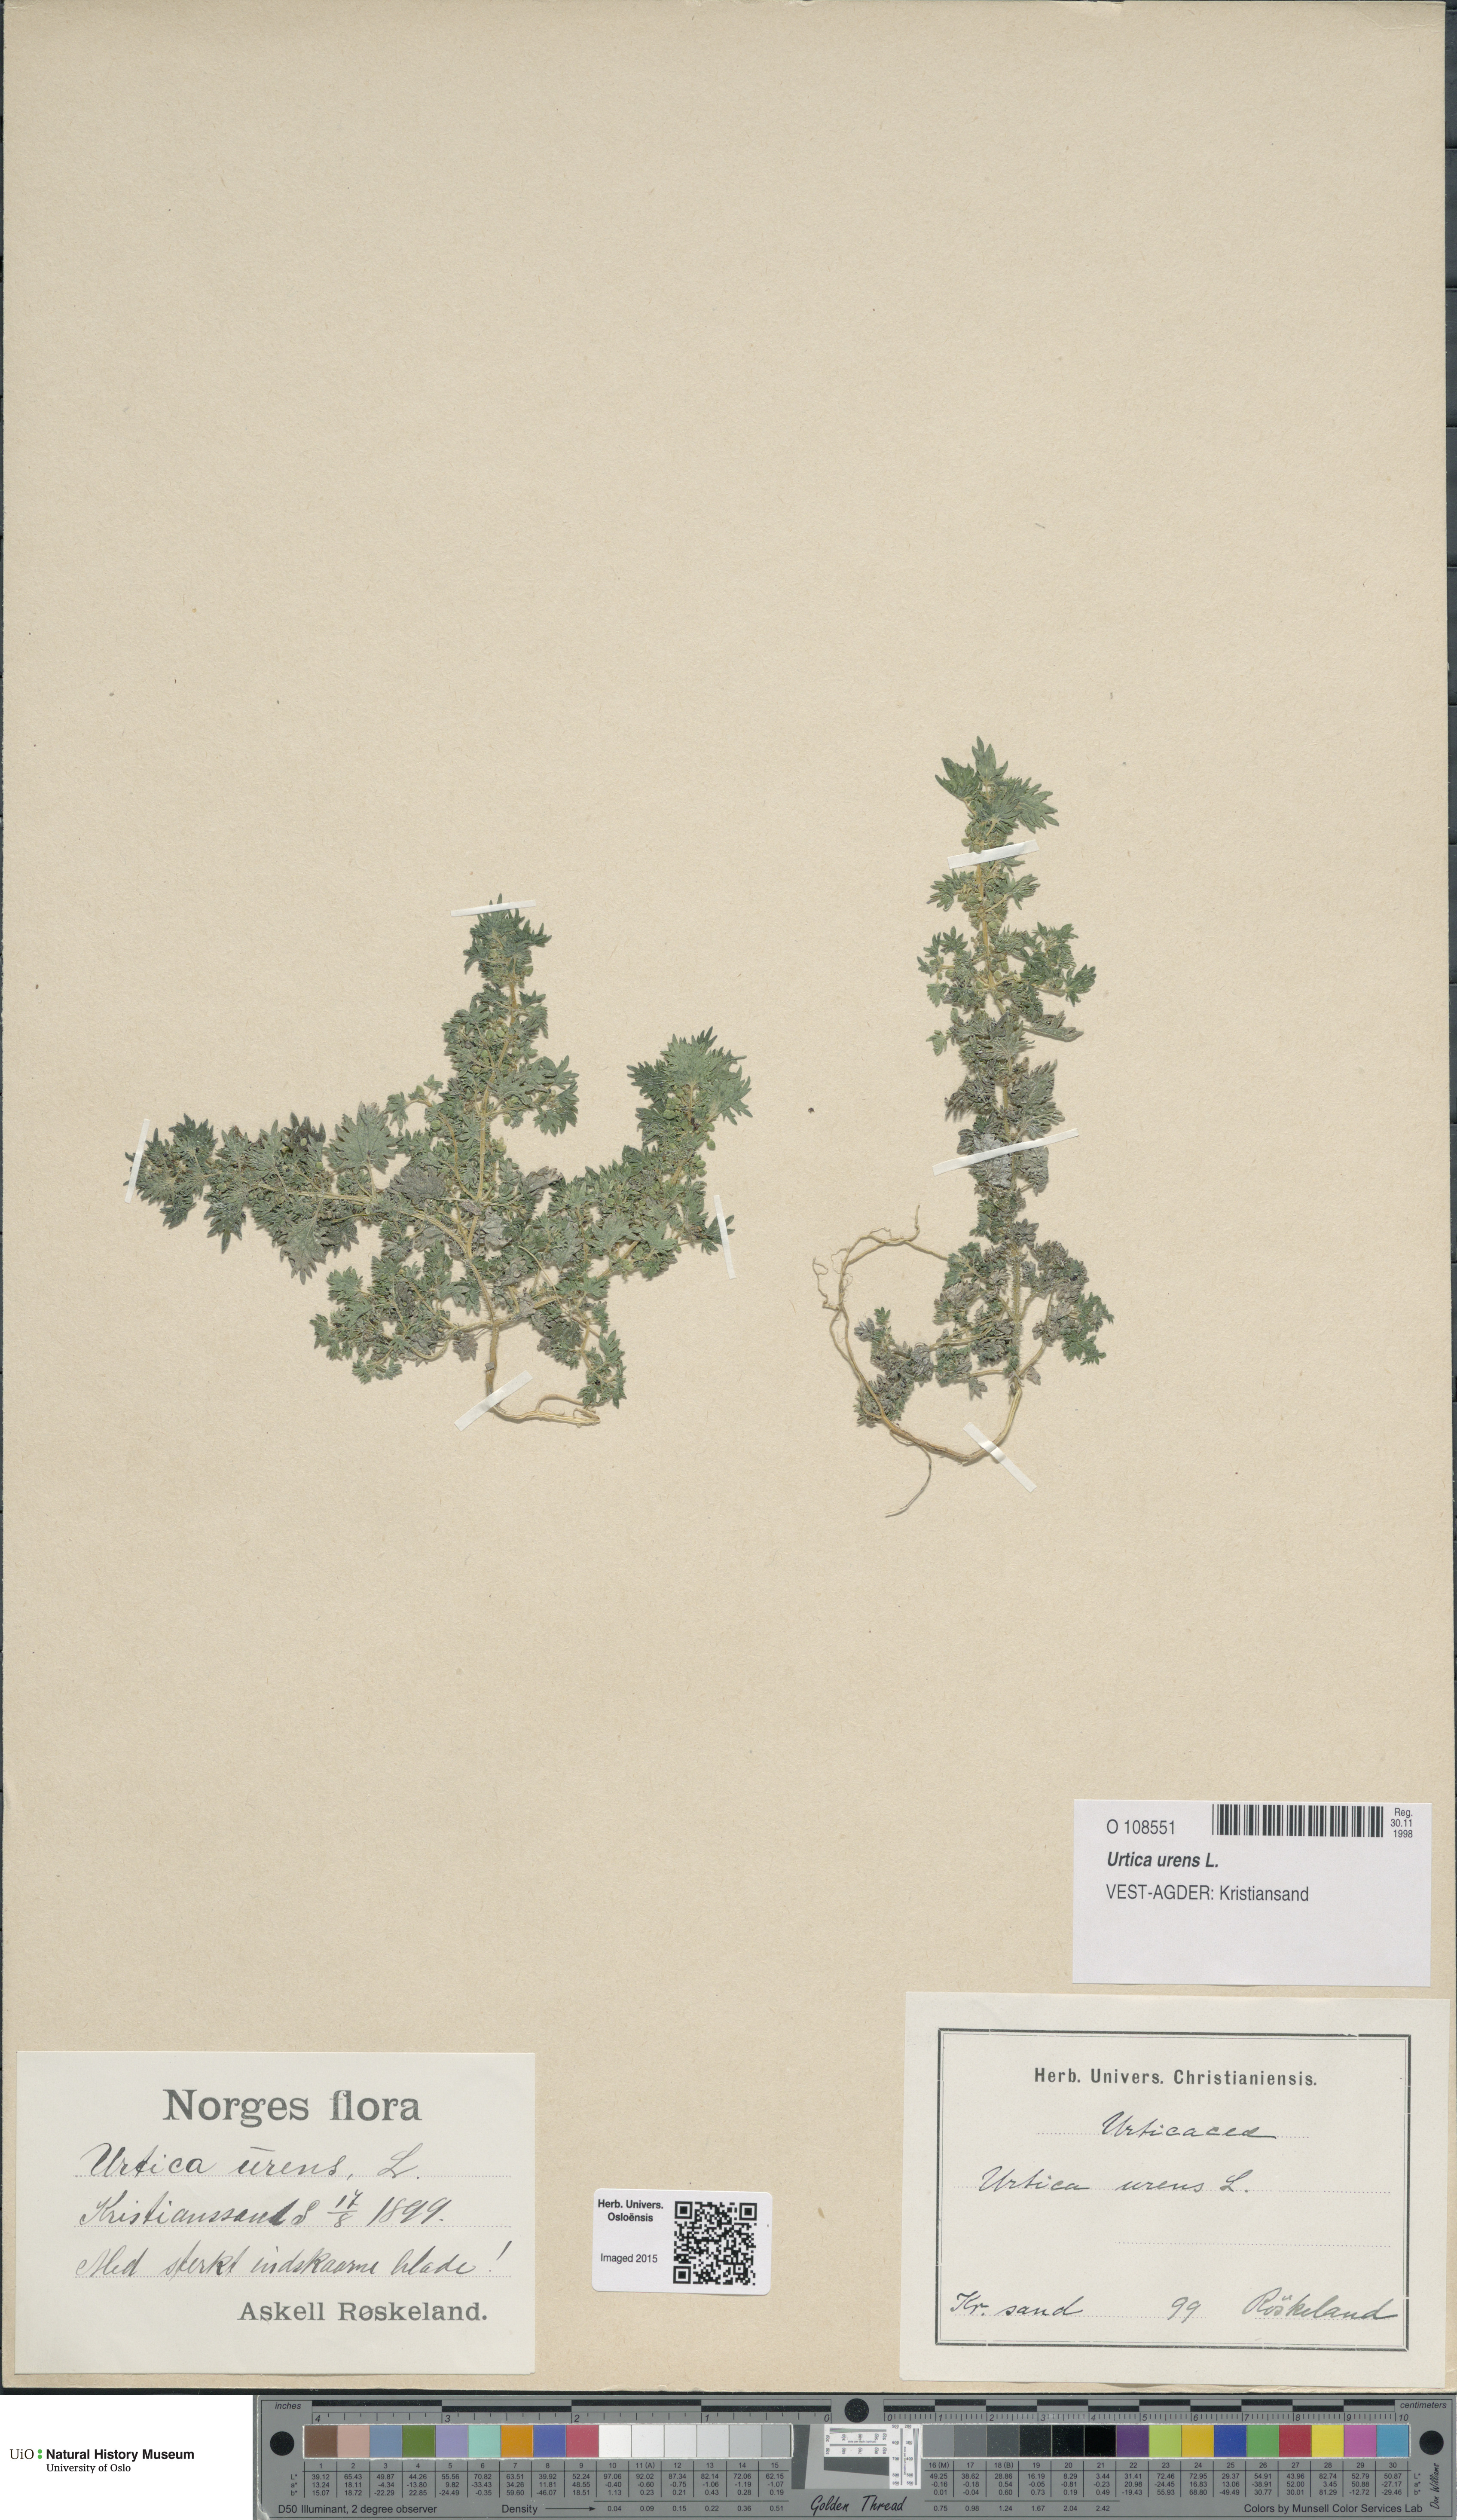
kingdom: Plantae
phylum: Tracheophyta
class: Magnoliopsida
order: Rosales
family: Urticaceae
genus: Urtica
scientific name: Urtica urens
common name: Dwarf nettle
